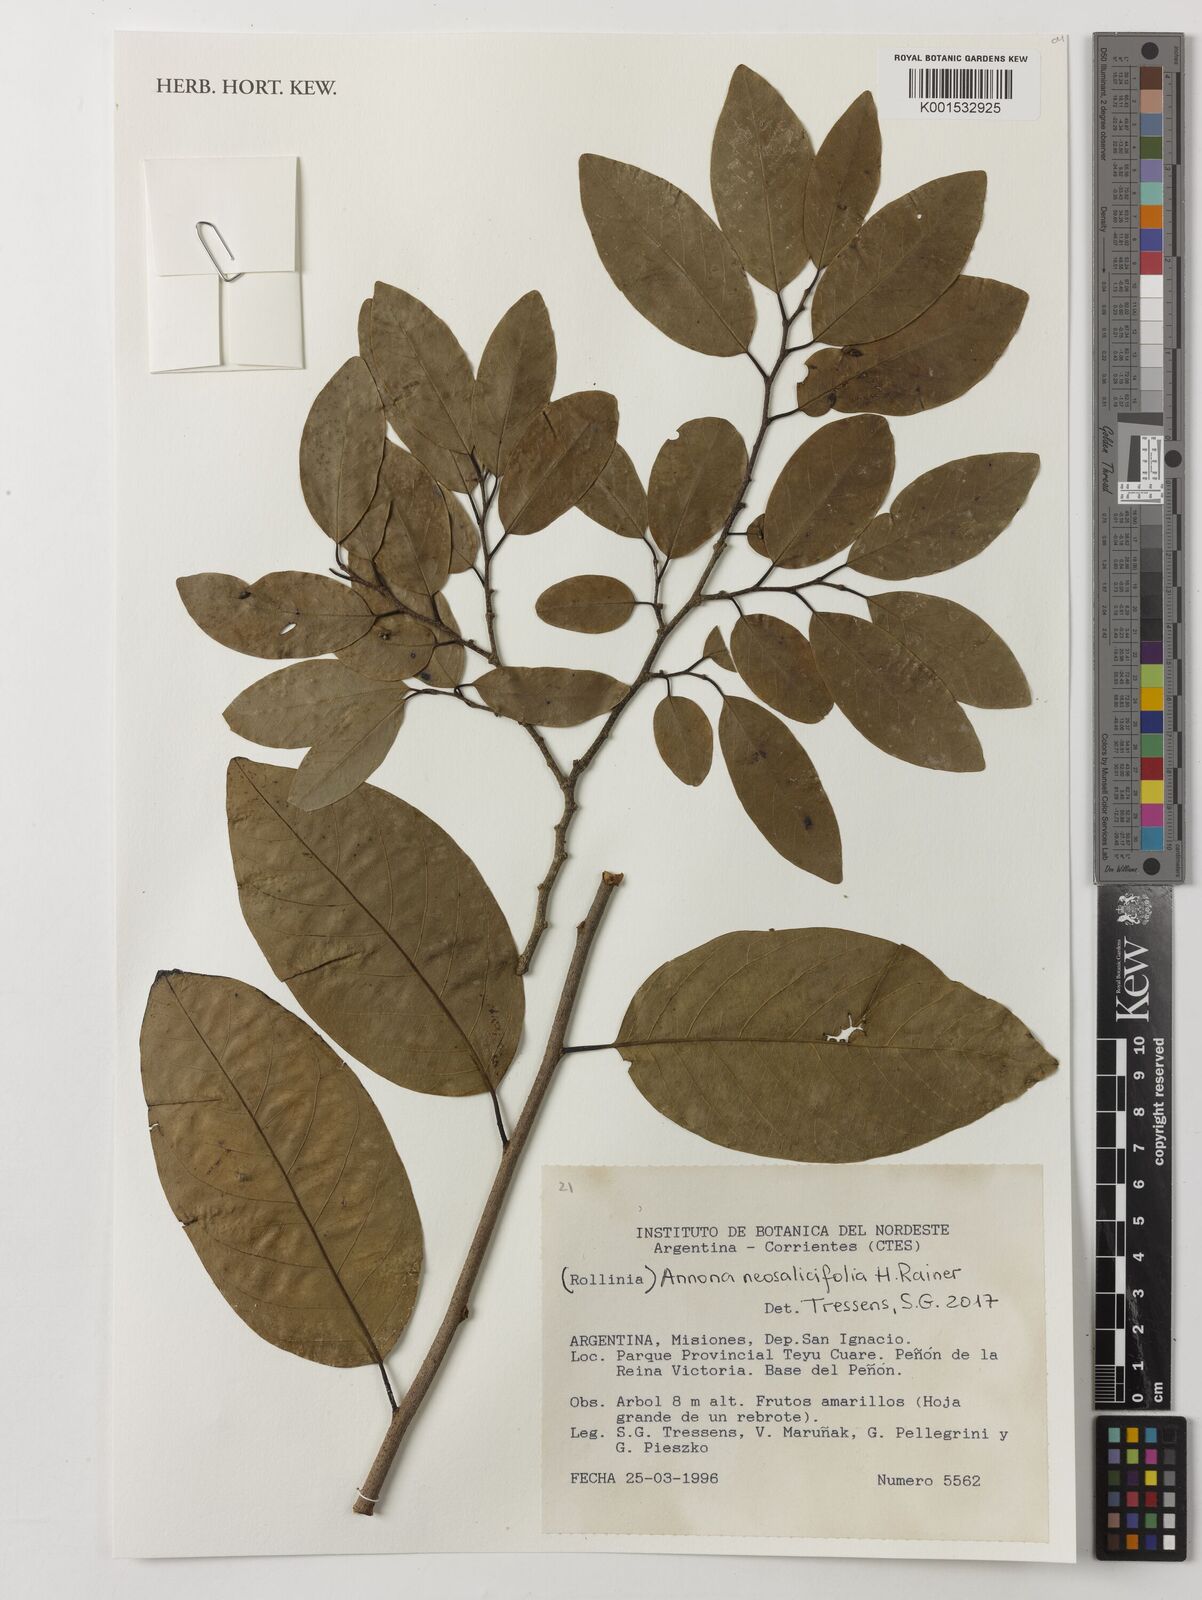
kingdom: Plantae
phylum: Tracheophyta
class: Magnoliopsida
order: Magnoliales
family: Annonaceae
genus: Annona
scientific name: Annona neosalicifolia
